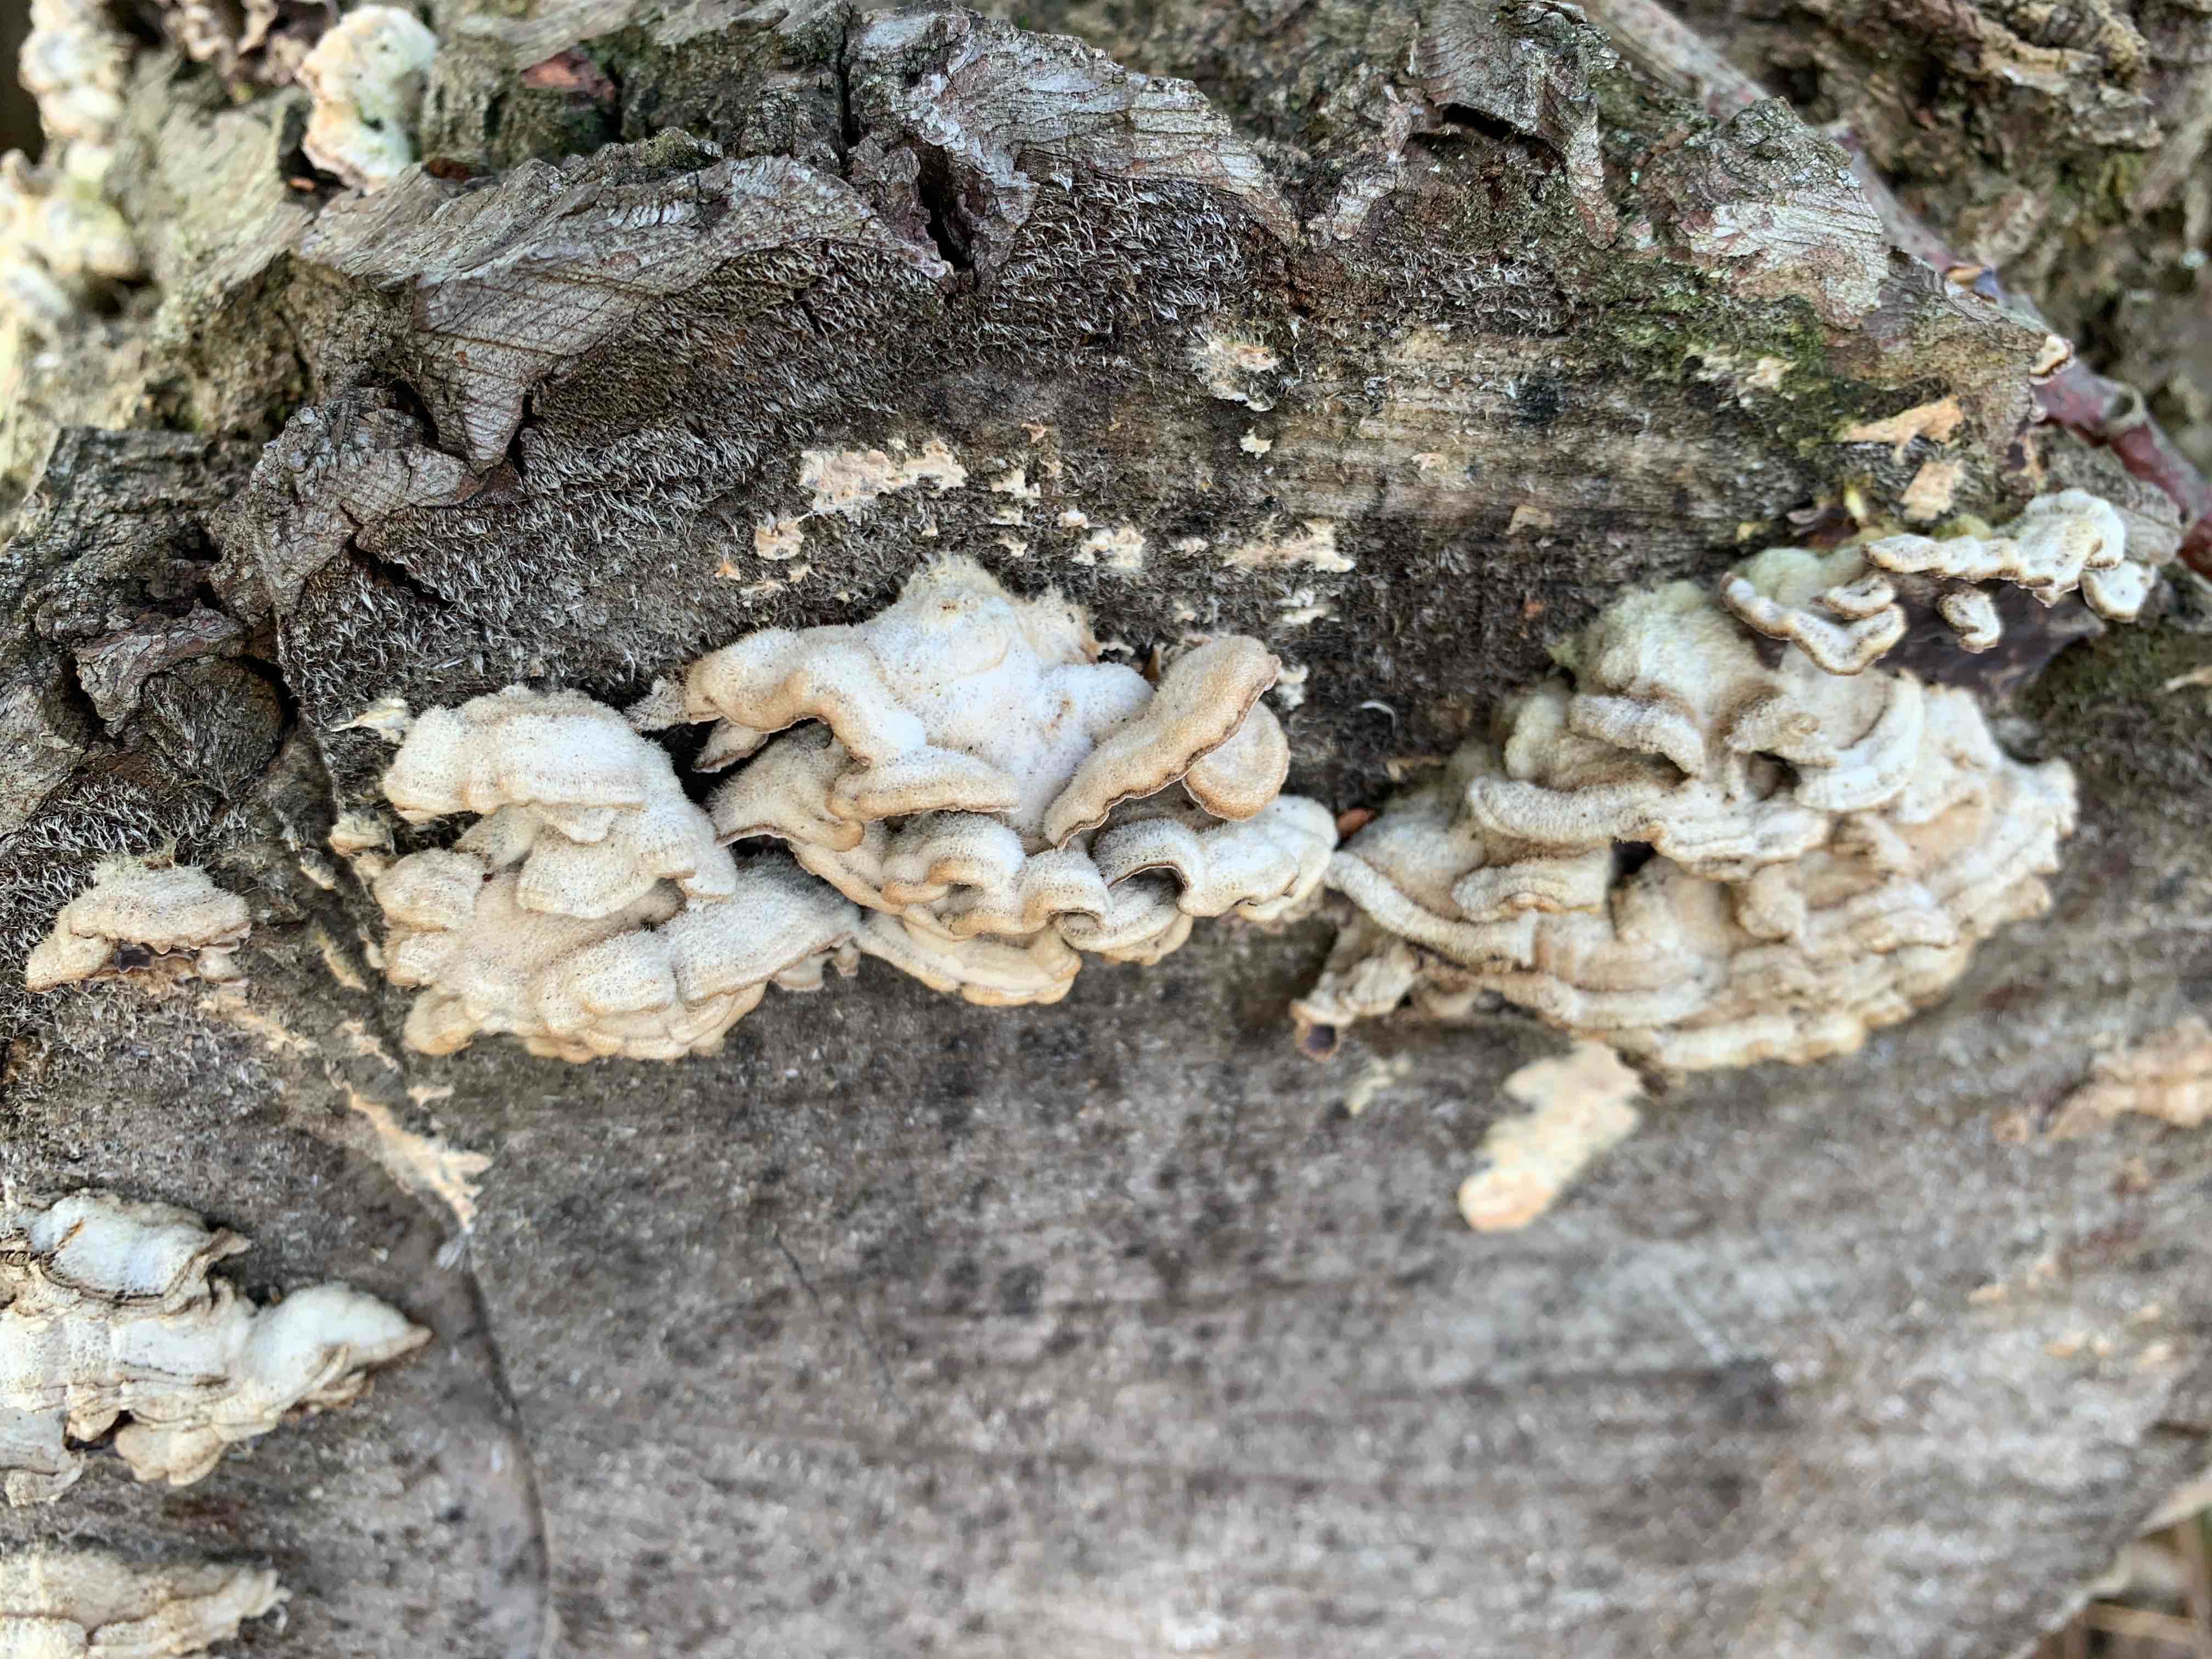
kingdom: Fungi
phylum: Basidiomycota
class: Agaricomycetes
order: Agaricales
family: Cyphellaceae
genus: Chondrostereum
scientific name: Chondrostereum purpureum
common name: purpurlædersvamp
